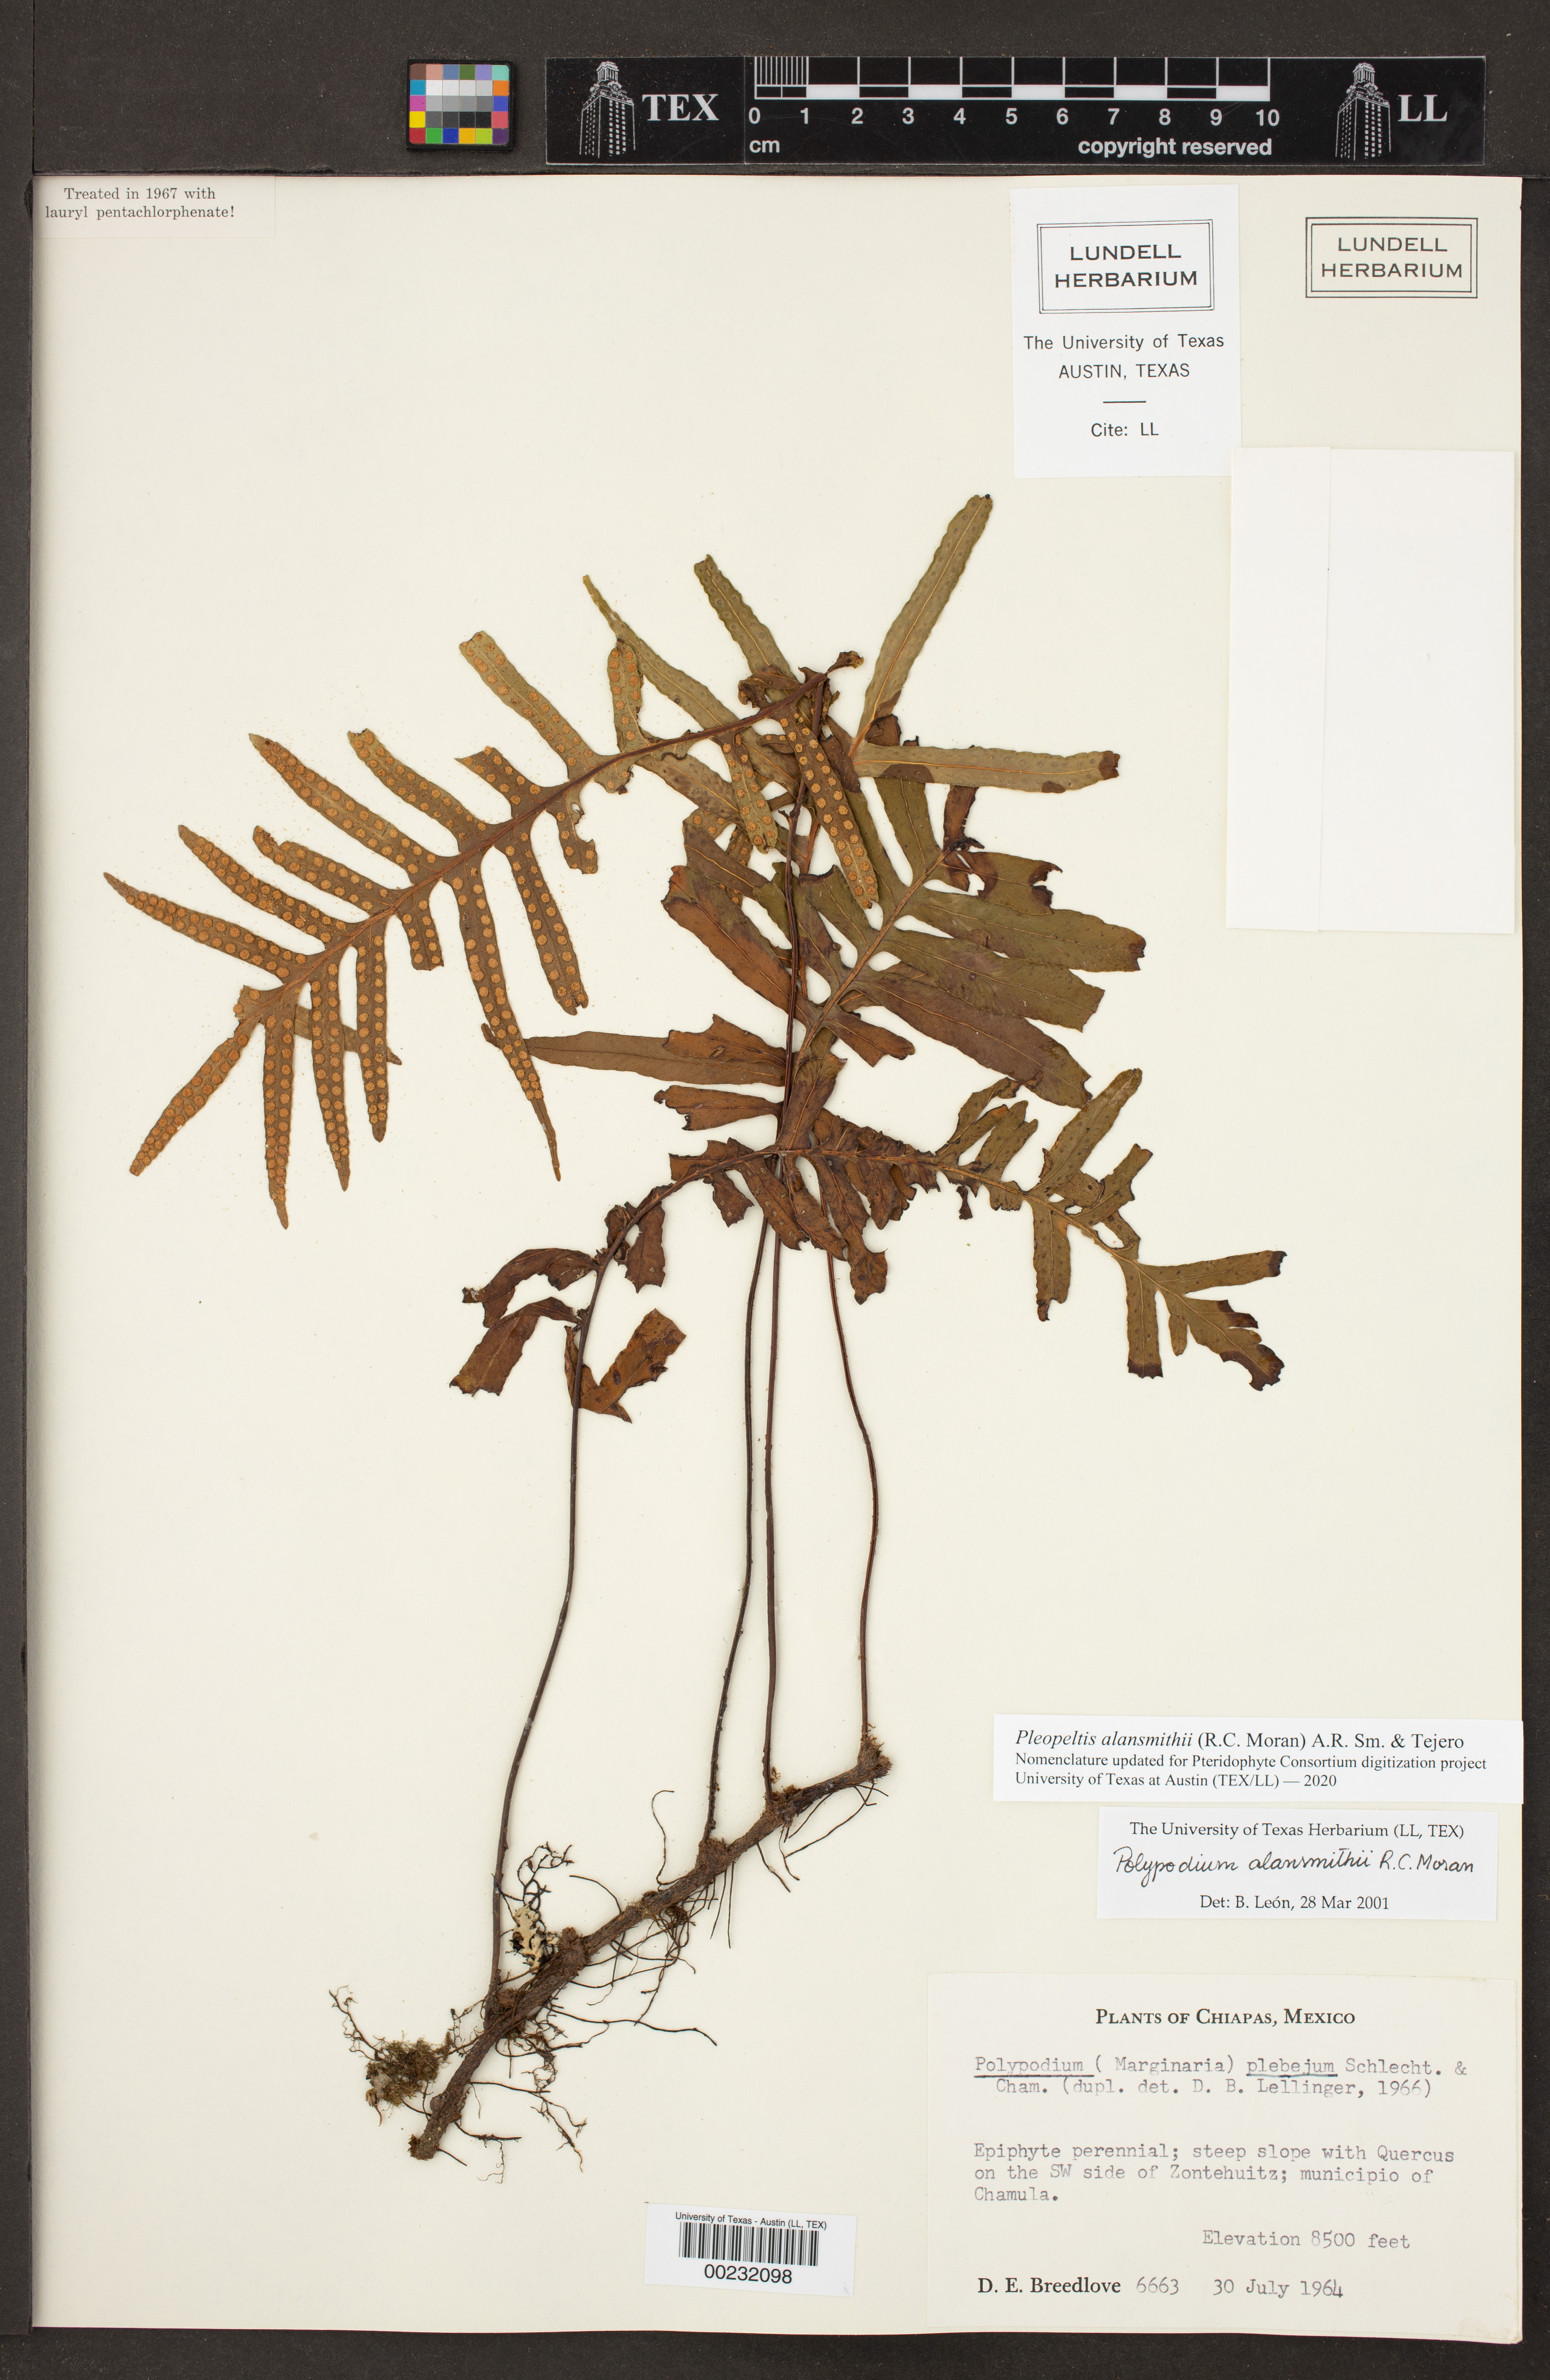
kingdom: Plantae
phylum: Tracheophyta
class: Polypodiopsida
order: Polypodiales
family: Polypodiaceae
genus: Pleopeltis
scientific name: Pleopeltis alansmithii
